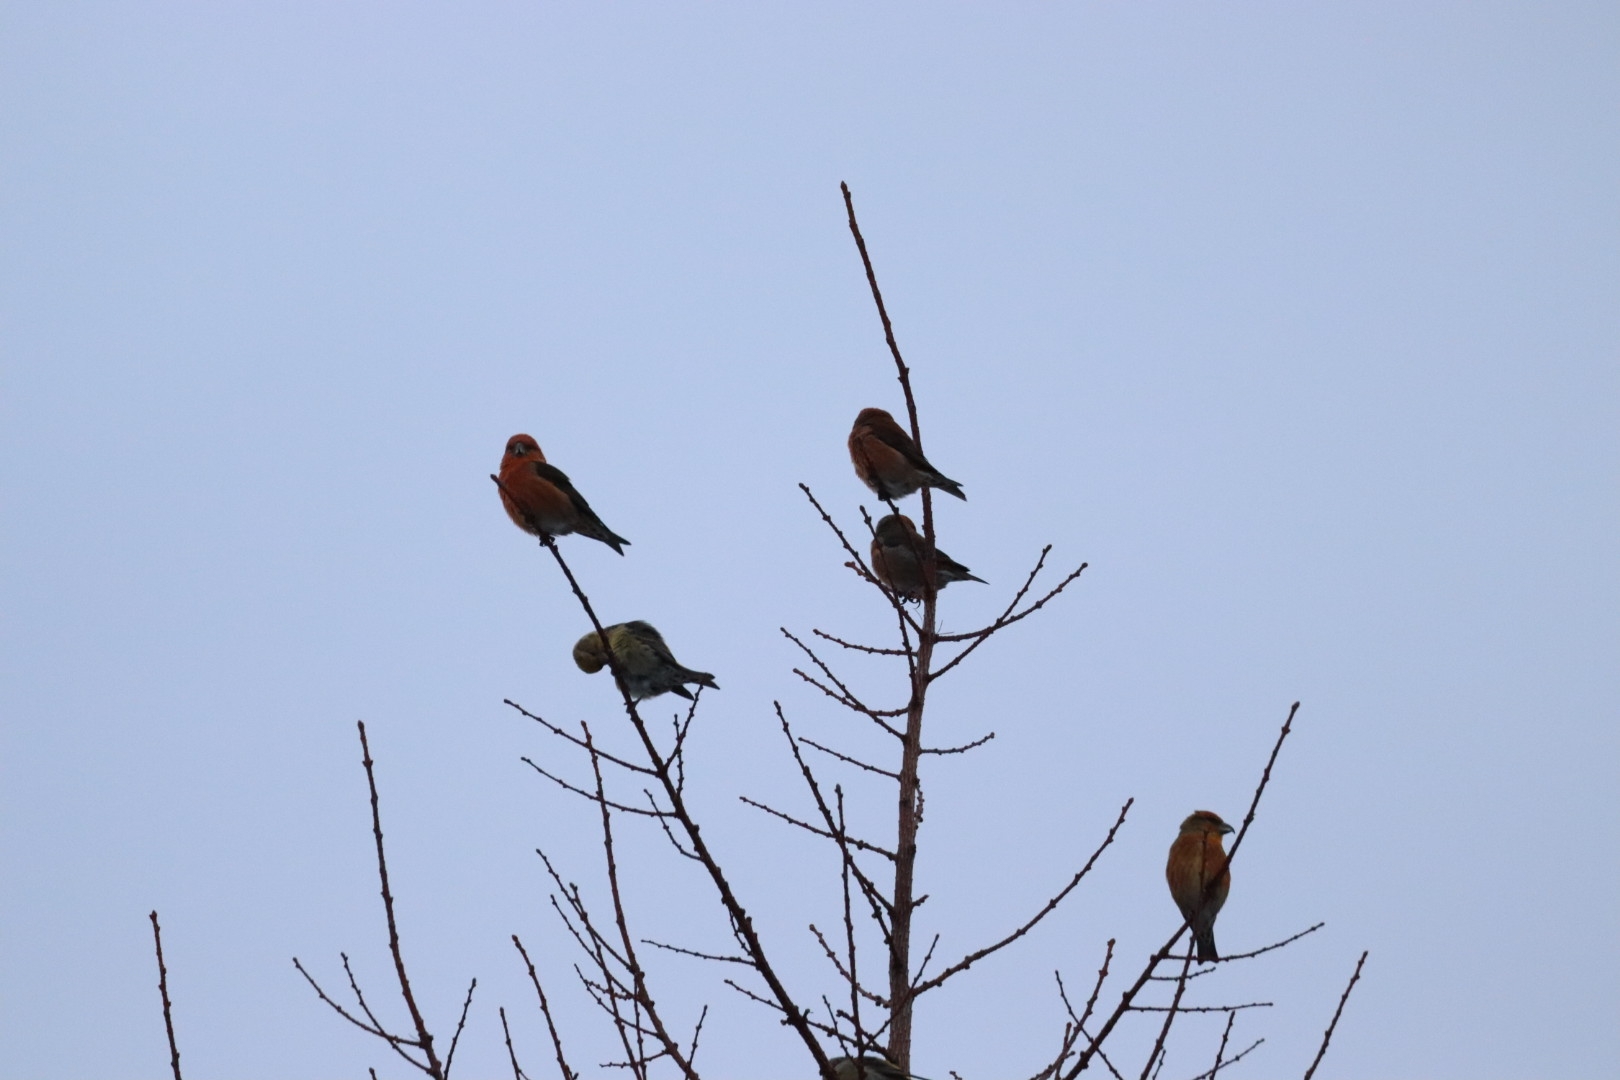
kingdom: Animalia
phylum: Chordata
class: Aves
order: Passeriformes
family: Fringillidae
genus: Loxia
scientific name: Loxia curvirostra
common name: Lille korsnæb
